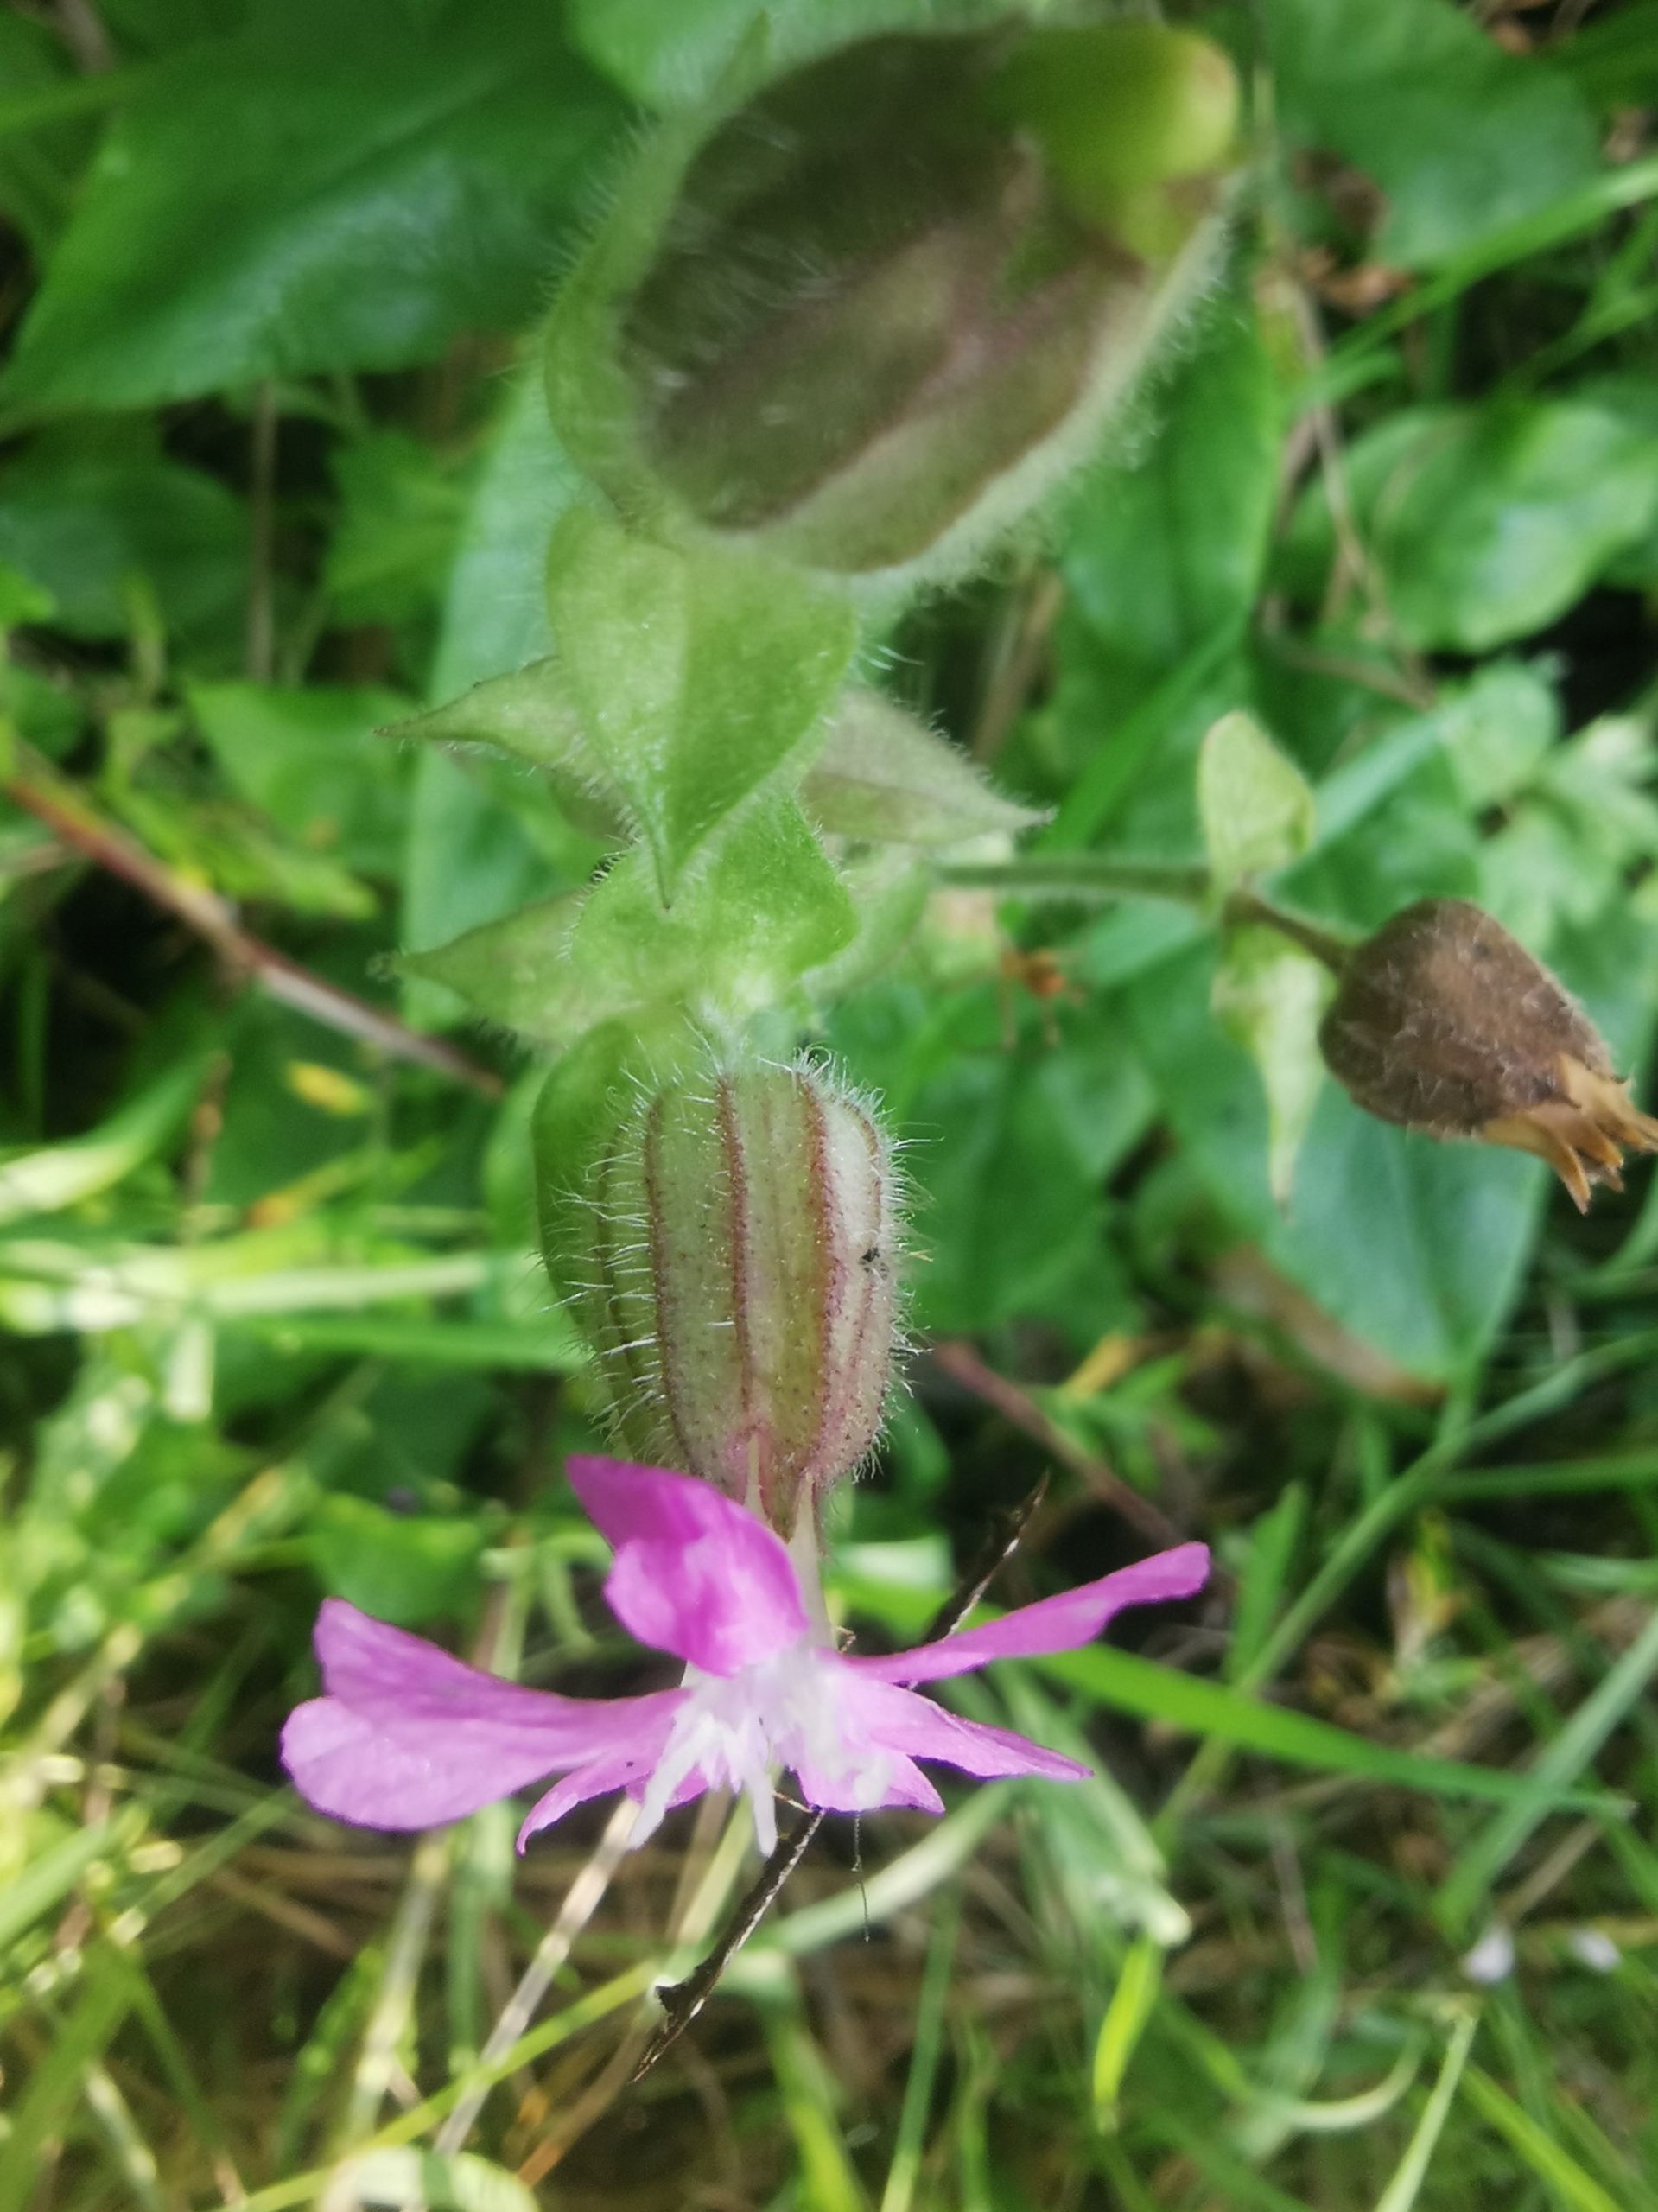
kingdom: Plantae
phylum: Tracheophyta
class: Magnoliopsida
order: Caryophyllales
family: Caryophyllaceae
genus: Silene
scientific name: Silene dioica
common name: Dagpragtstjerne
